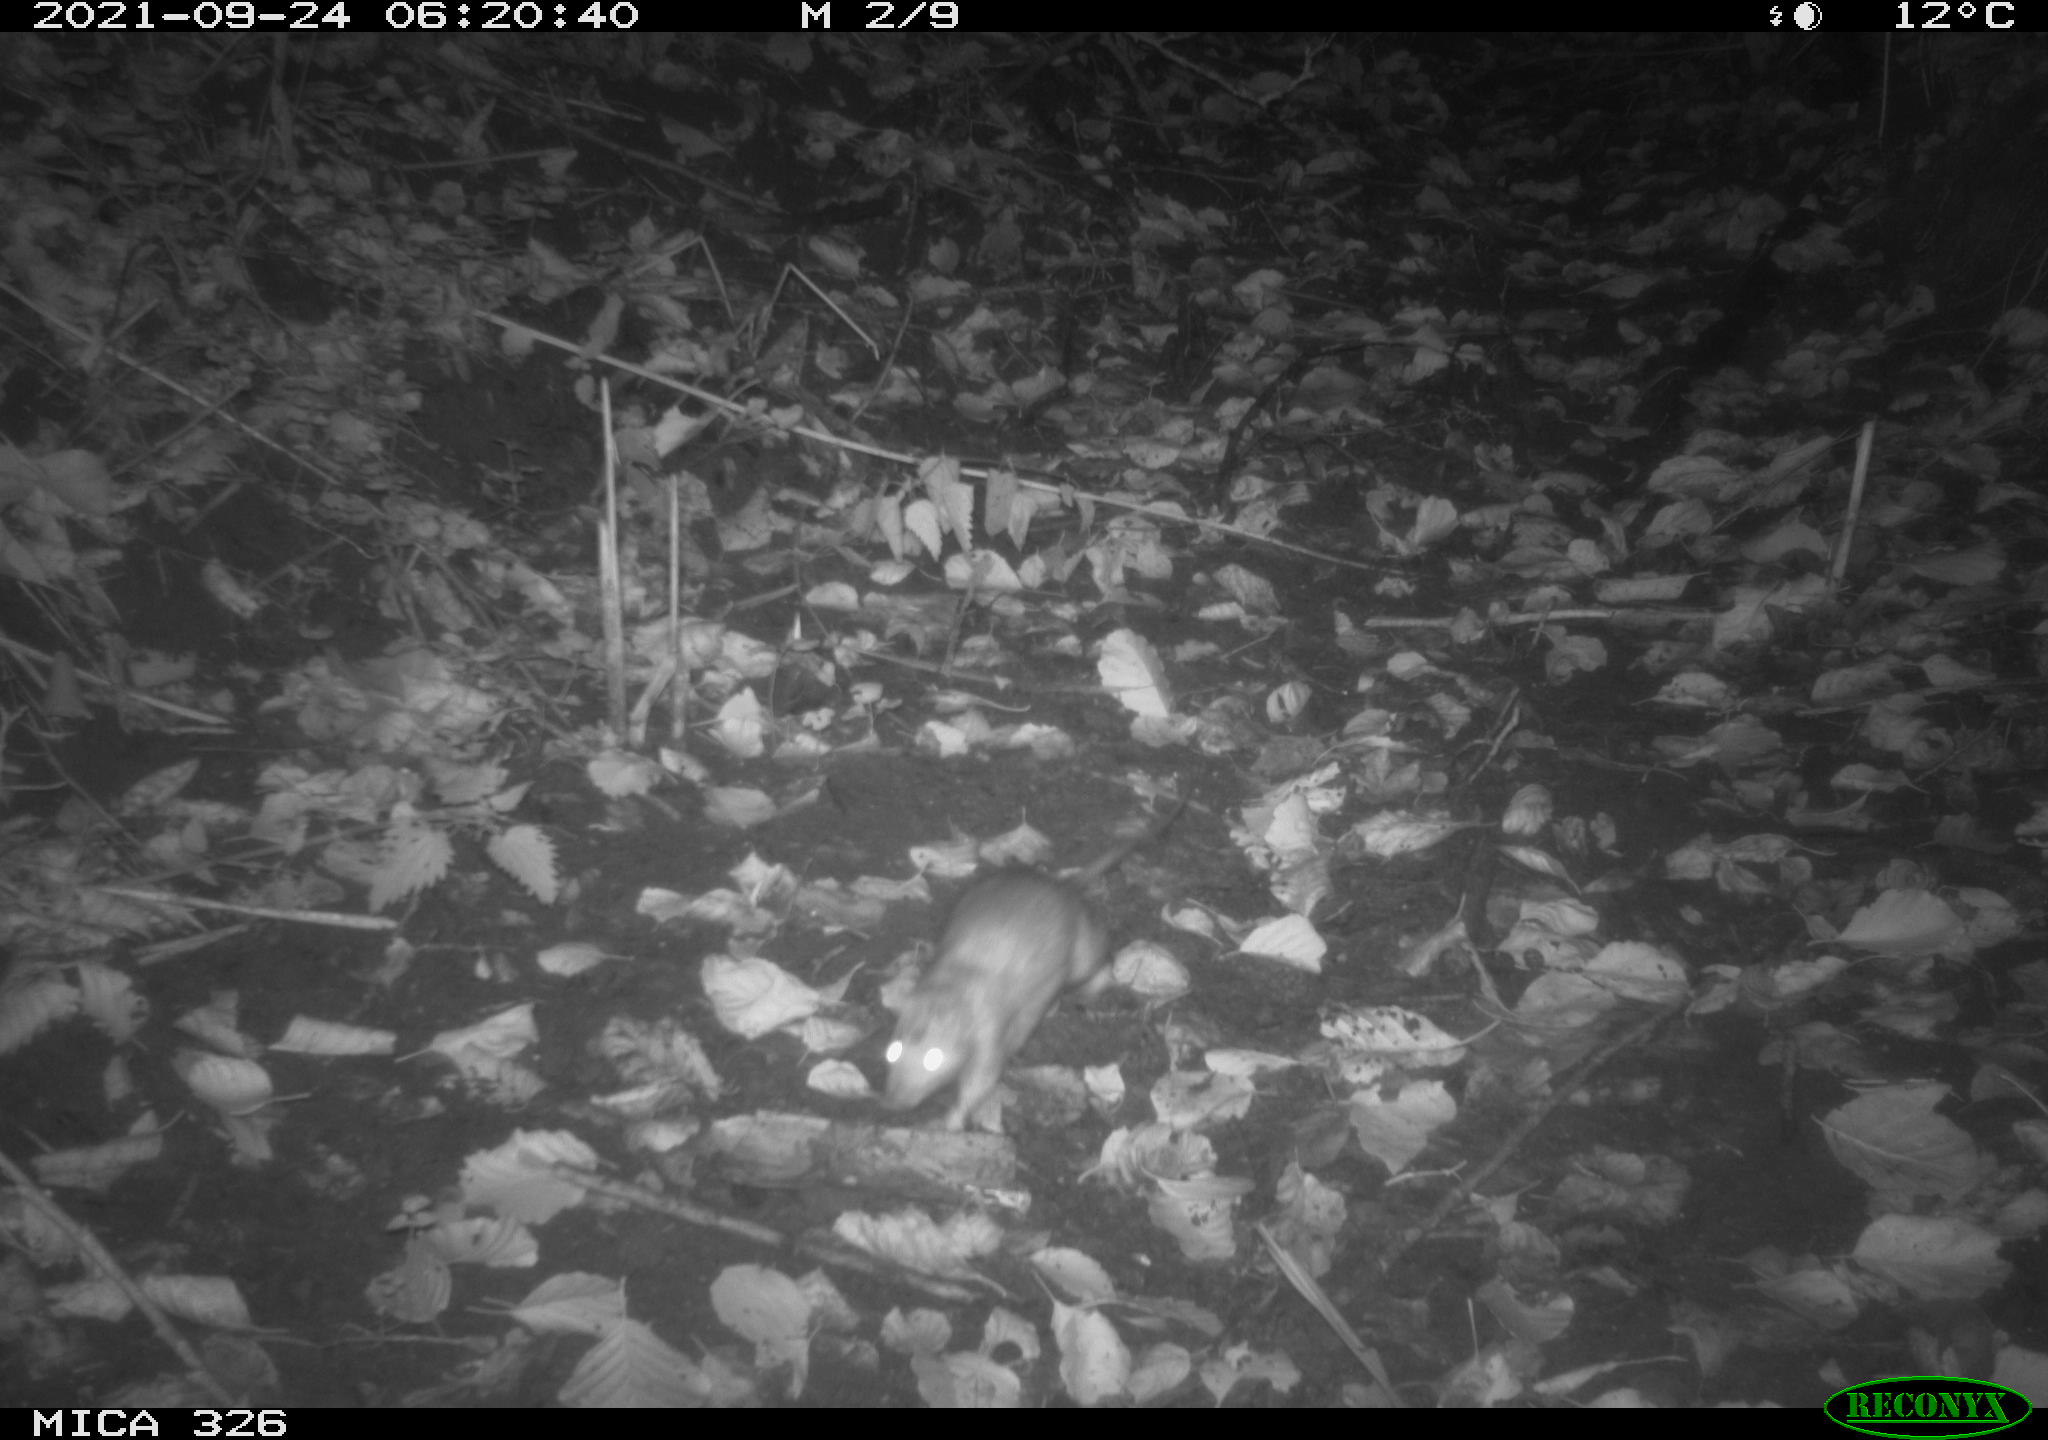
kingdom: Animalia
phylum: Chordata
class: Mammalia
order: Rodentia
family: Muridae
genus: Rattus
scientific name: Rattus norvegicus
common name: Brown rat
